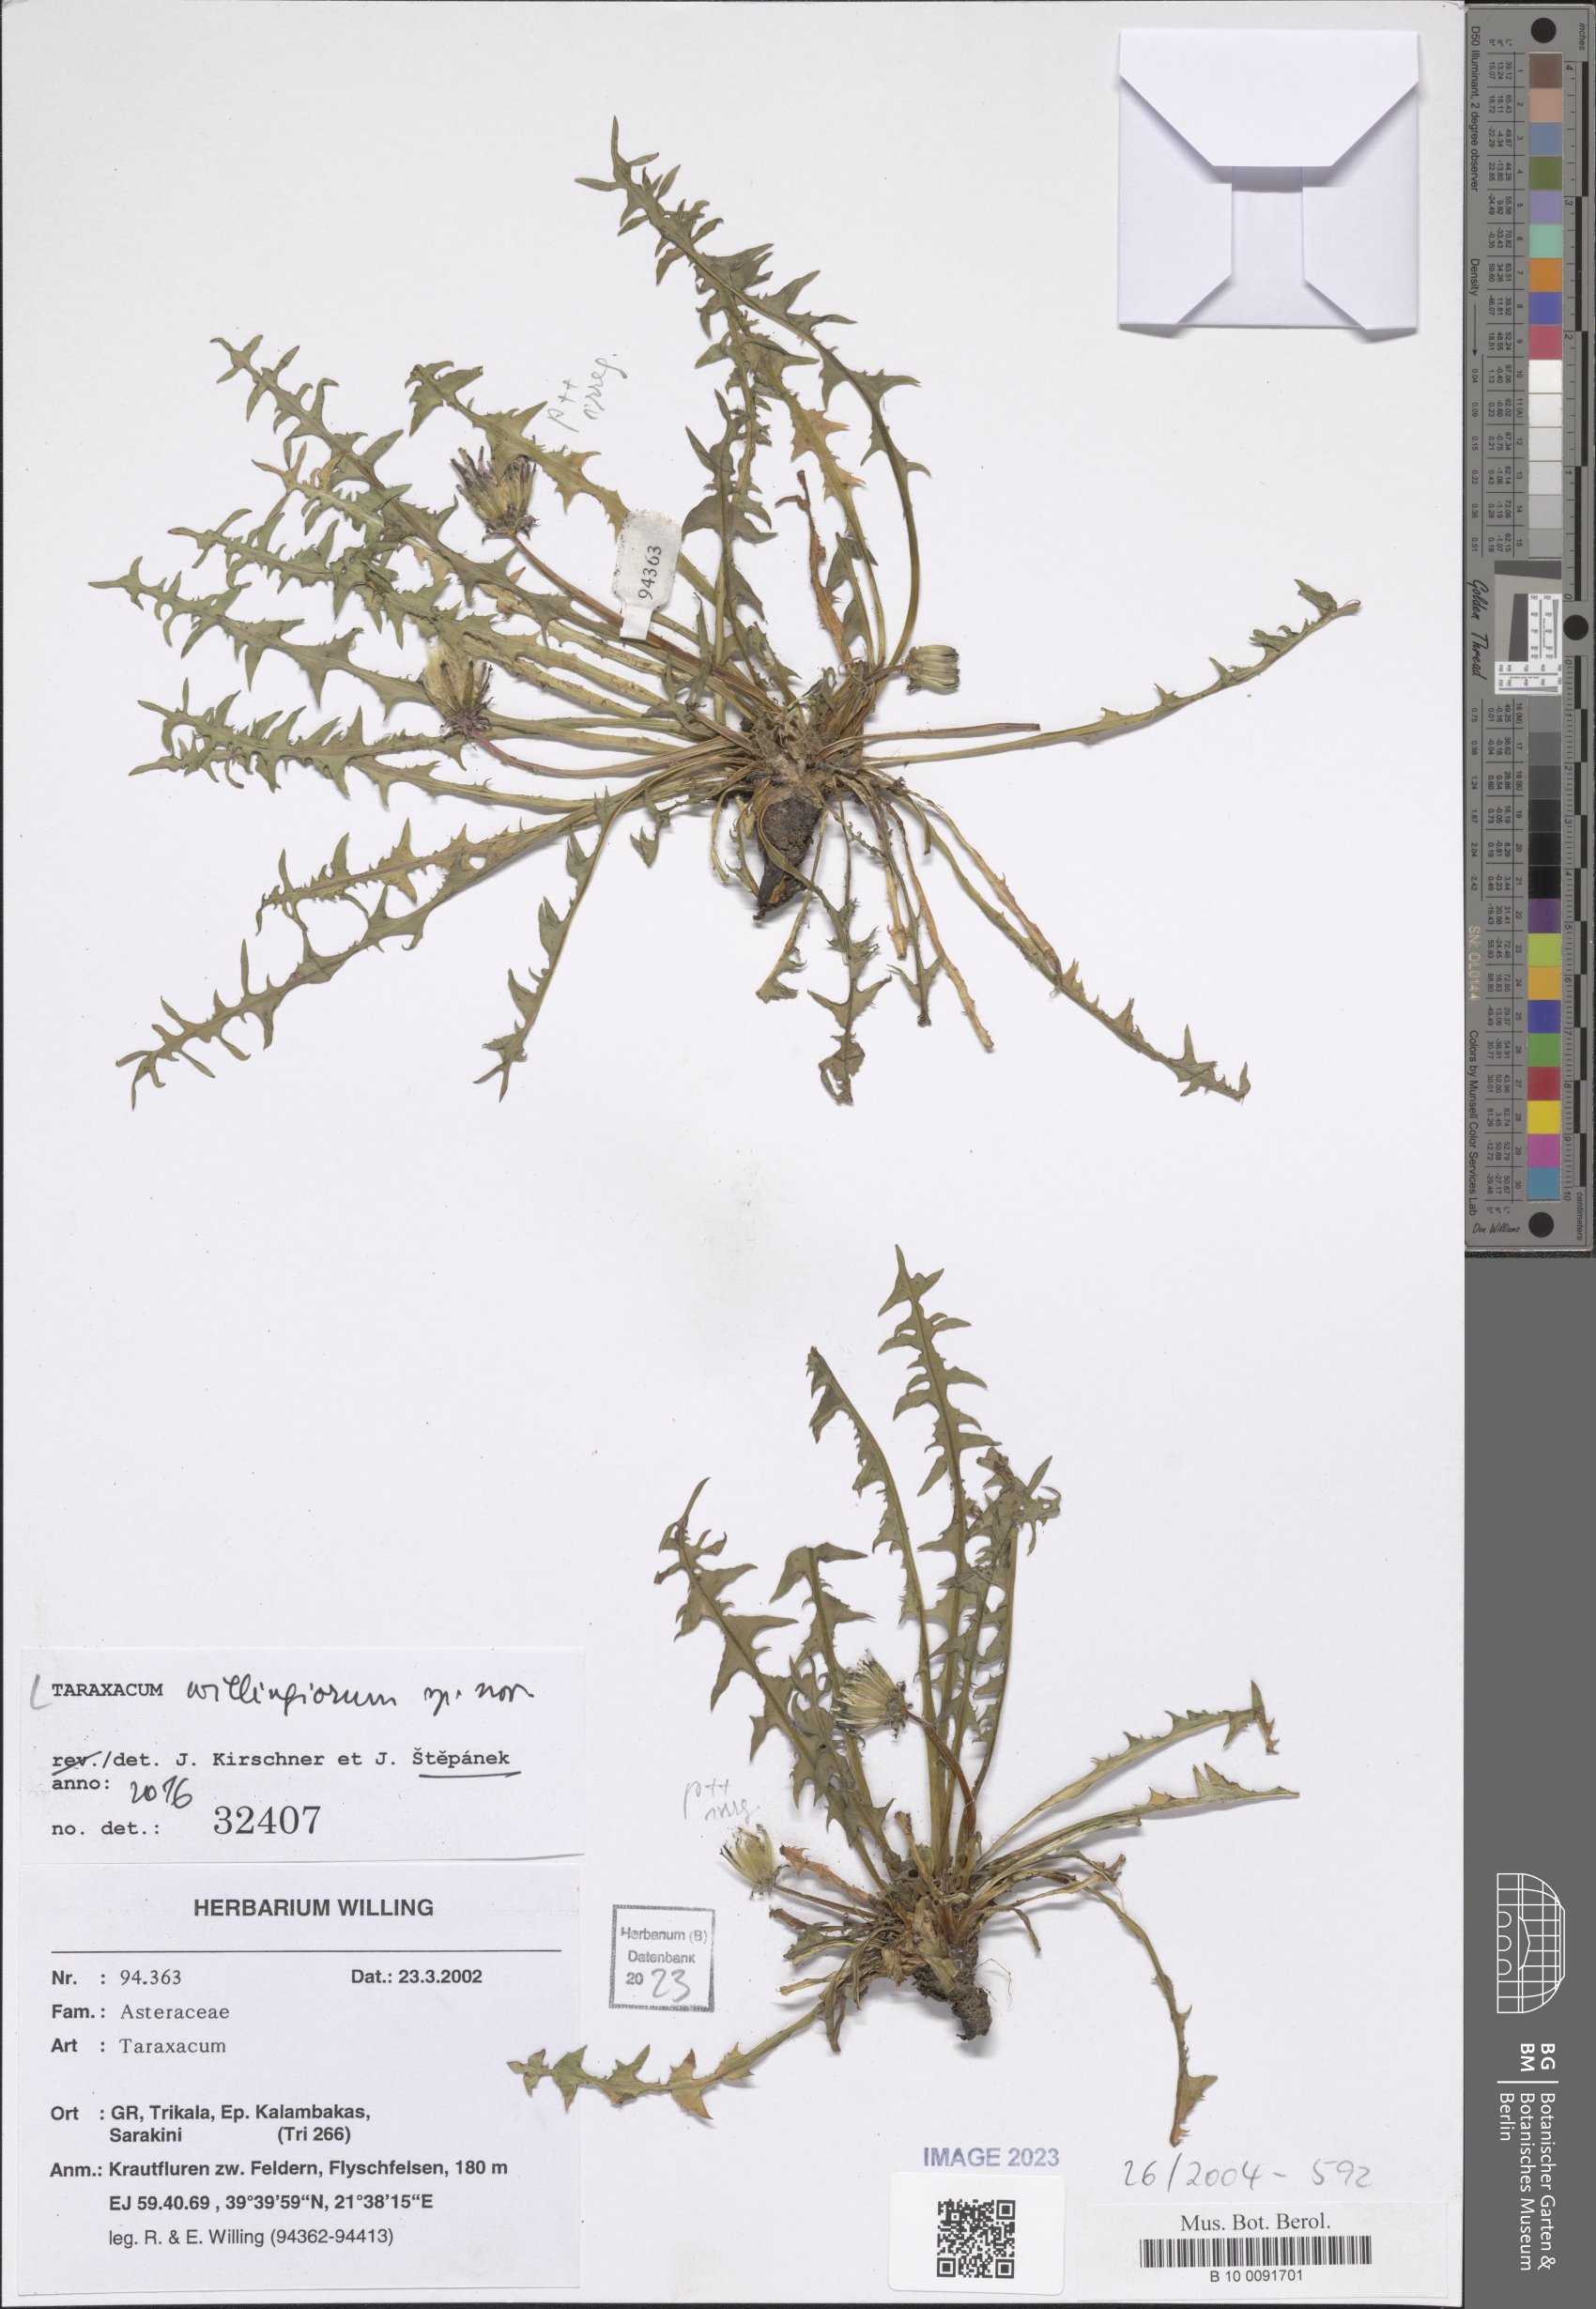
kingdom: Plantae
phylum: Tracheophyta
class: Magnoliopsida
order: Asterales
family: Asteraceae
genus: Taraxacum
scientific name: Taraxacum
